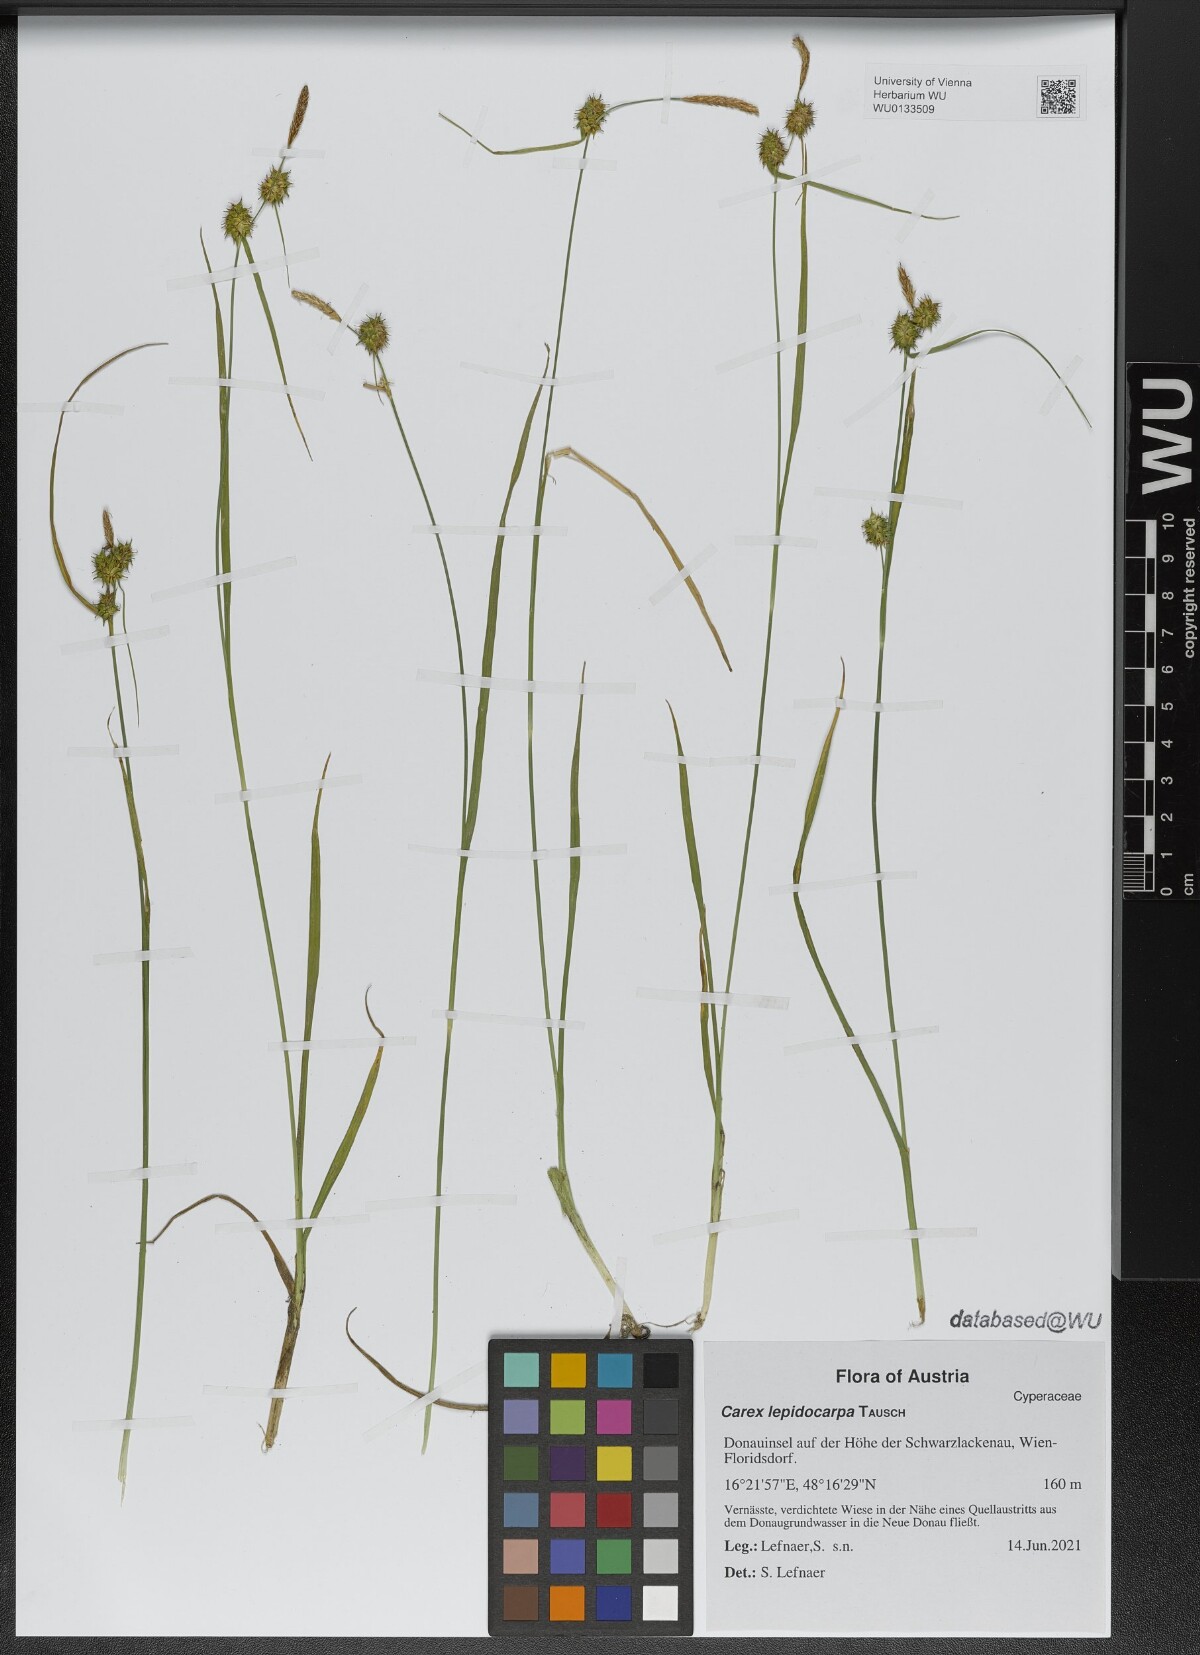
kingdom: Plantae
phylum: Tracheophyta
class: Liliopsida
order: Poales
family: Cyperaceae
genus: Carex
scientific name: Carex lepidocarpa
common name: Long-stalked yellow-sedge
